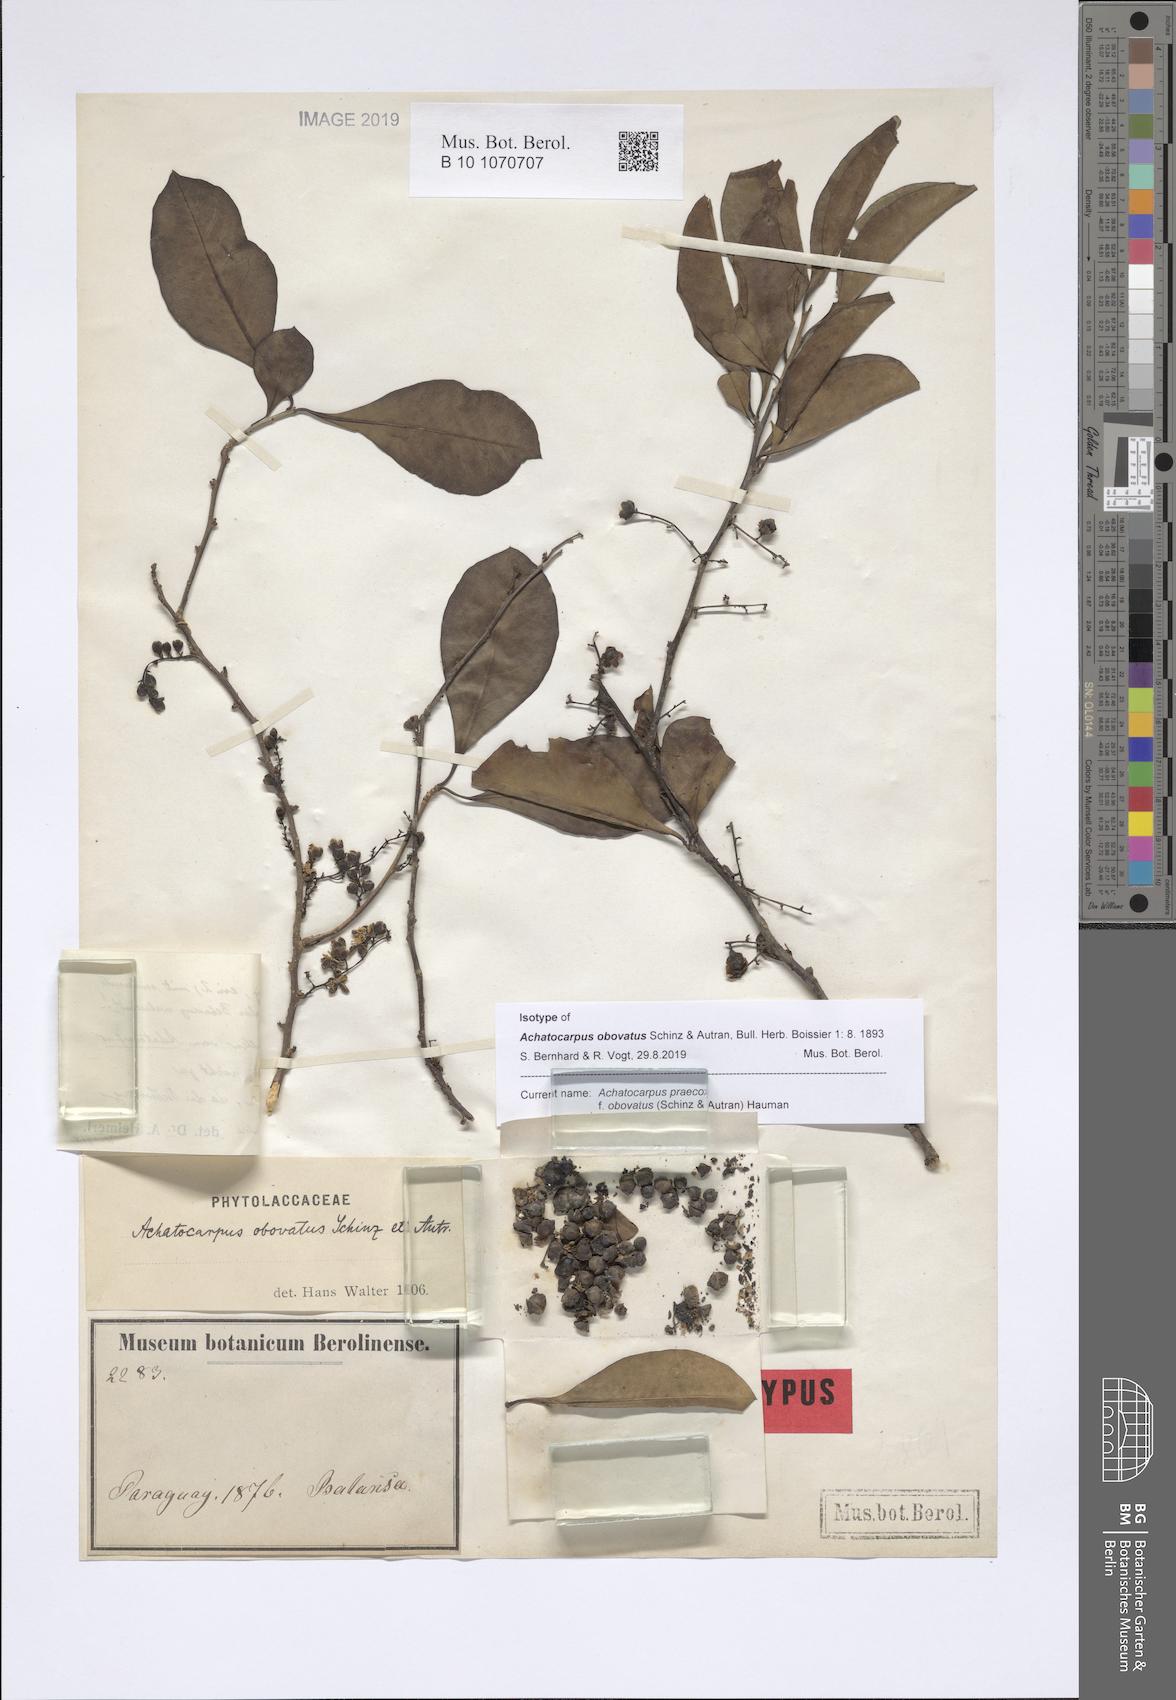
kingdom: Plantae
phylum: Tracheophyta
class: Magnoliopsida
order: Caryophyllales
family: Achatocarpaceae
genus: Achatocarpus
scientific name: Achatocarpus praecox
